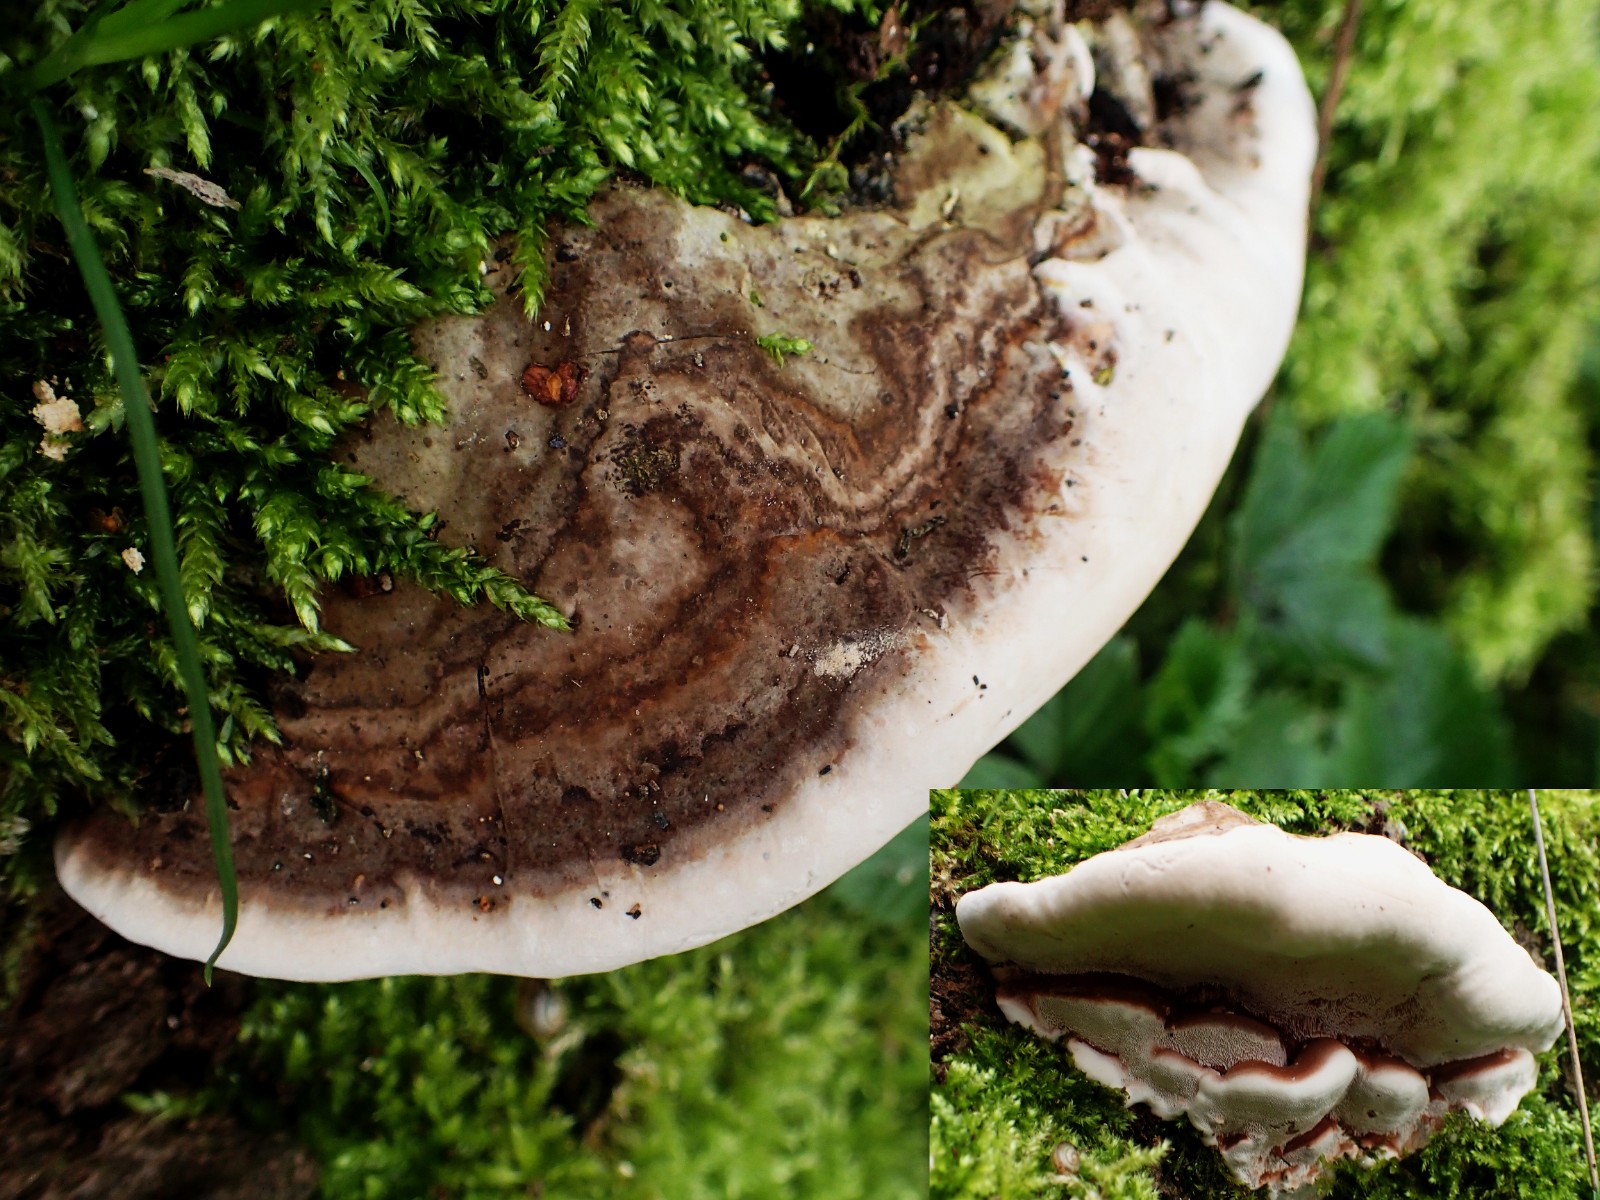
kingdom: Fungi
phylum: Basidiomycota
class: Agaricomycetes
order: Polyporales
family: Polyporaceae
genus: Ganoderma
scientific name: Ganoderma pfeifferi
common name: kobberrød lakporesvamp
